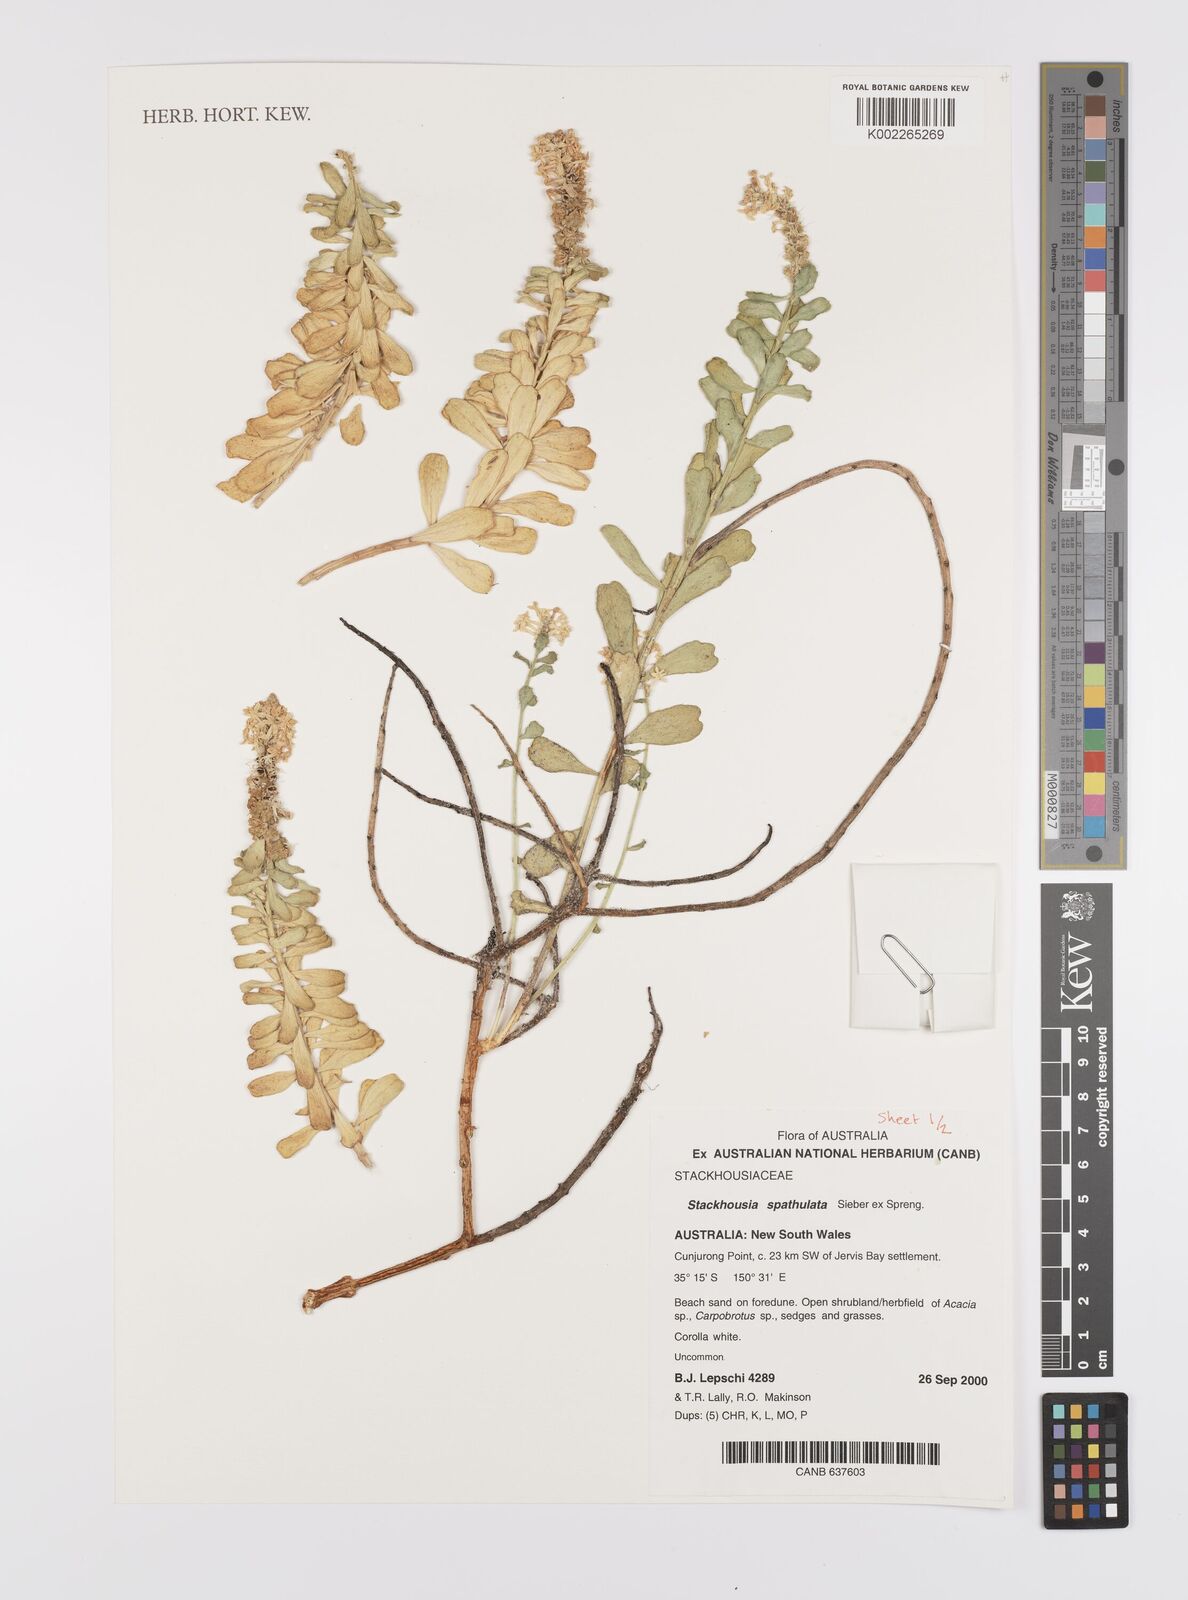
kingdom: Plantae
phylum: Tracheophyta
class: Magnoliopsida
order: Celastrales
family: Celastraceae
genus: Stackhousia
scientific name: Stackhousia spathulata
